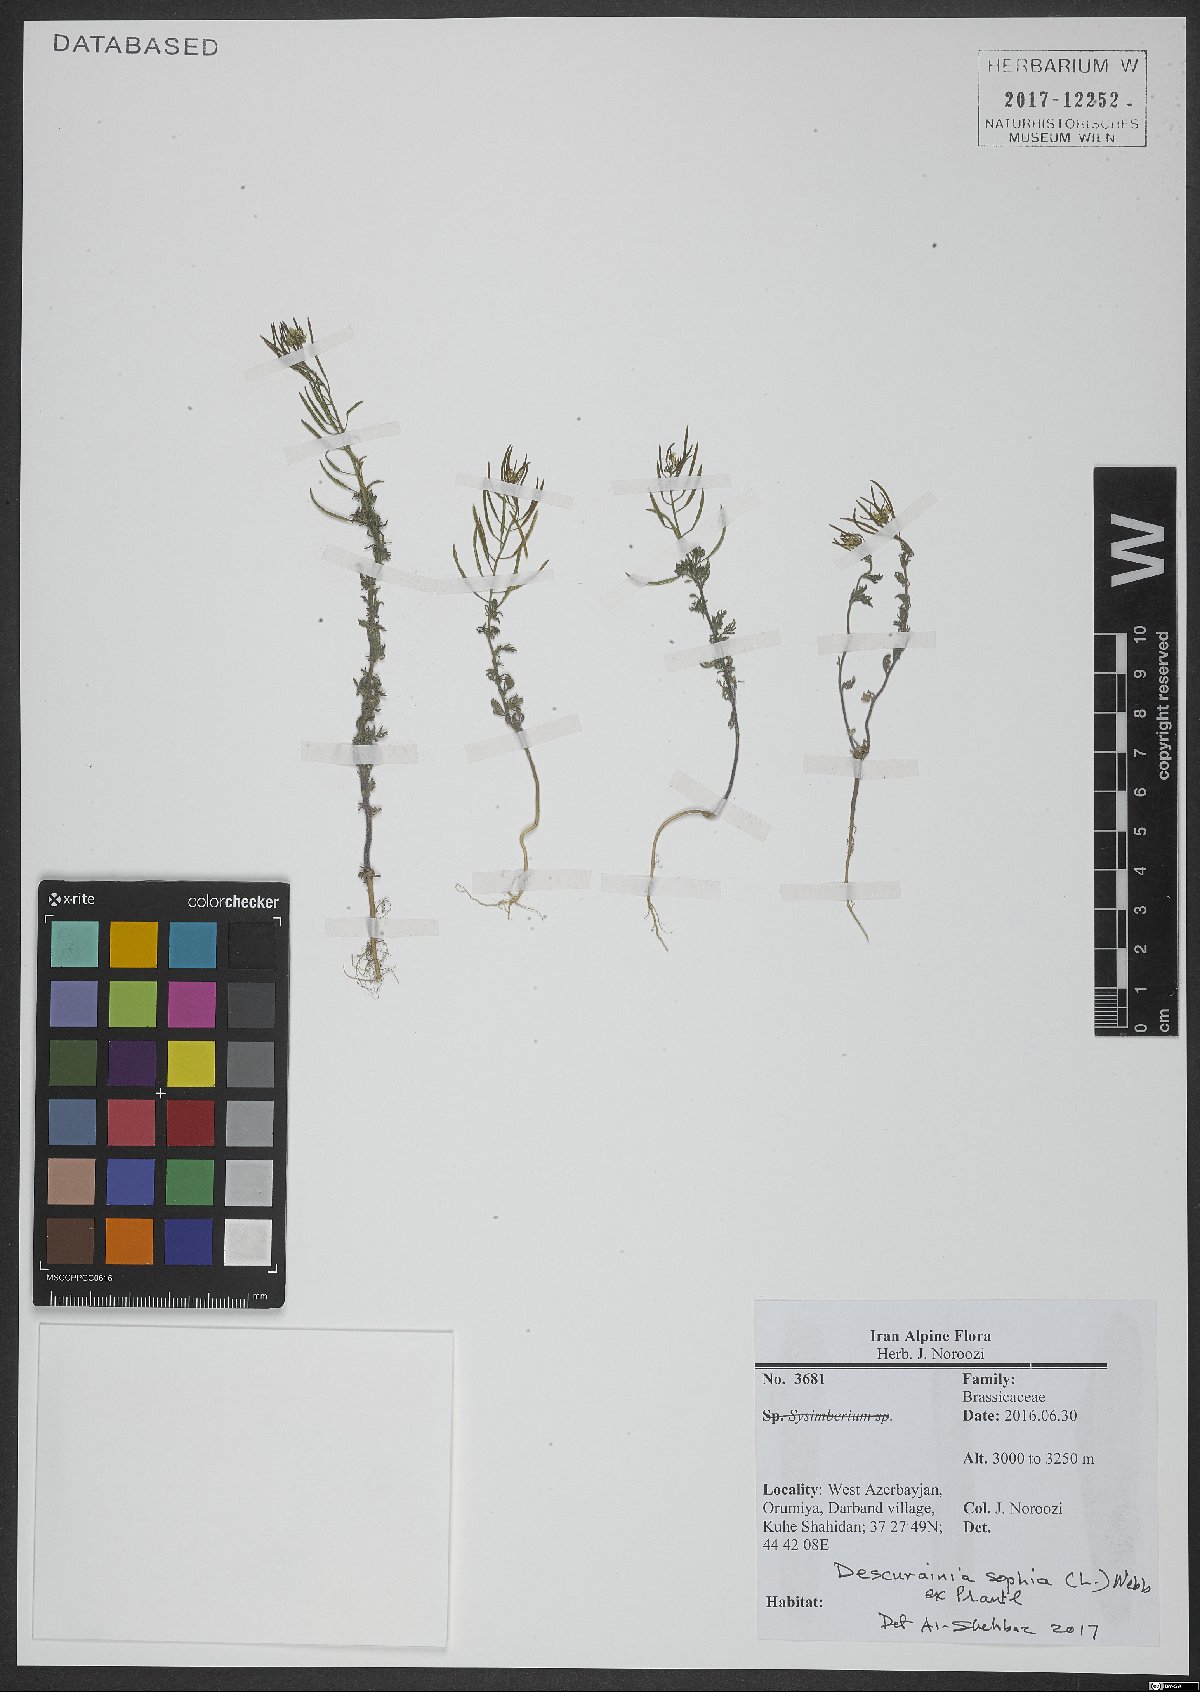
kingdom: Plantae
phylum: Tracheophyta
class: Magnoliopsida
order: Brassicales
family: Brassicaceae
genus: Descurainia
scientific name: Descurainia sophia
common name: Flixweed
